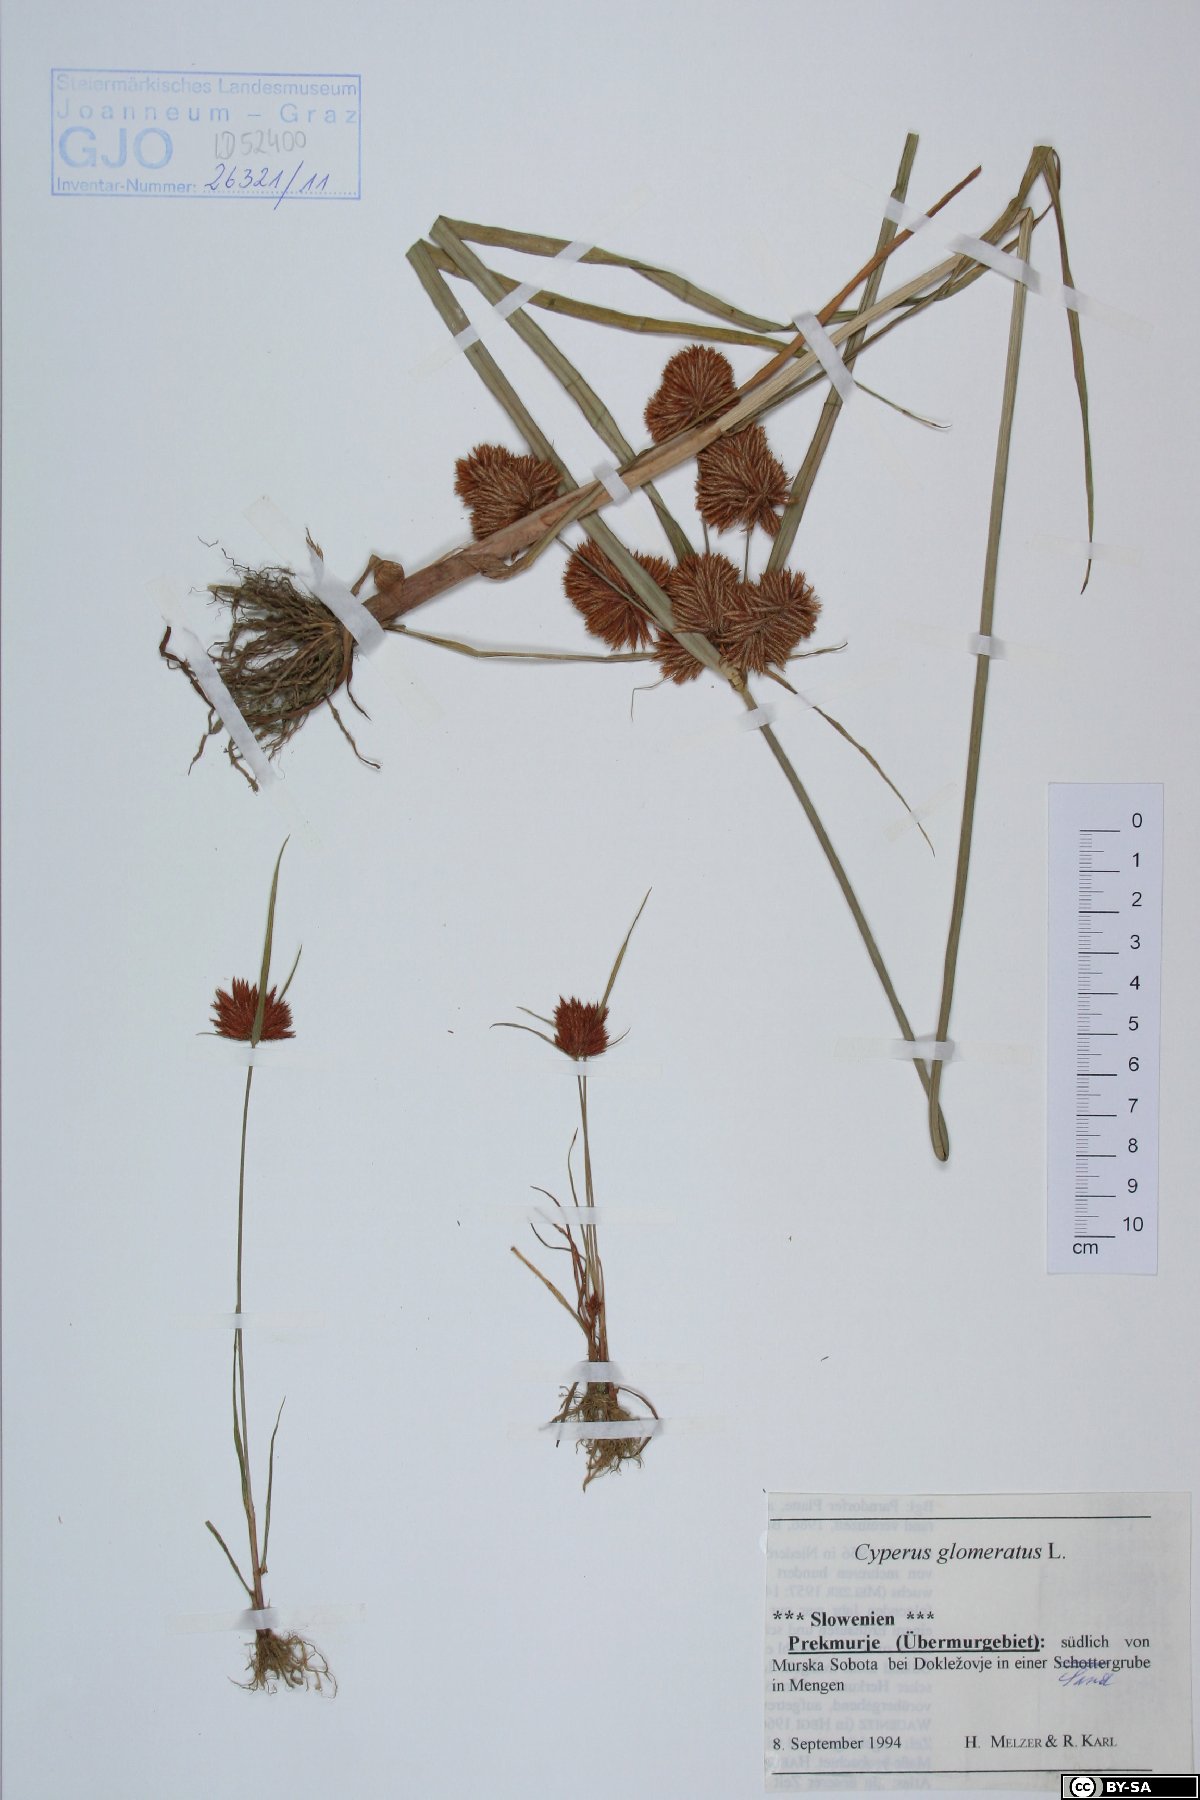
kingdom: Plantae
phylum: Tracheophyta
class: Liliopsida
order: Poales
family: Cyperaceae
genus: Cyperus
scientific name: Cyperus glomeratus
